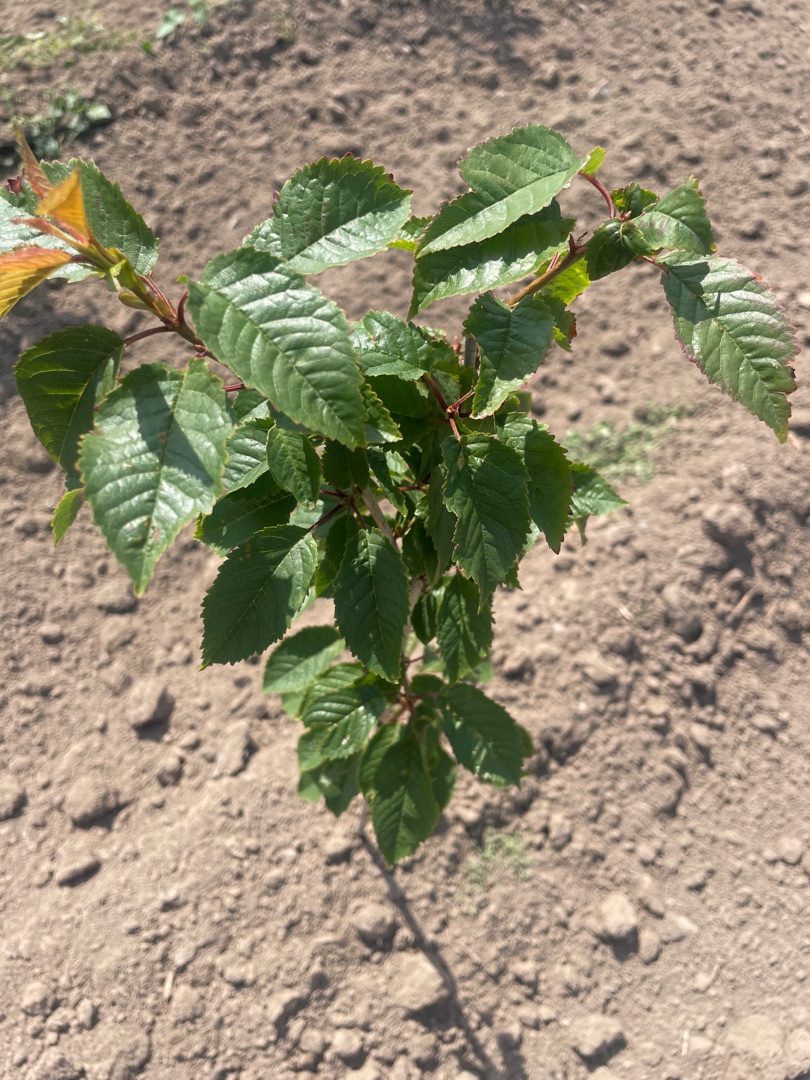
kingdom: Plantae
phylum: Tracheophyta
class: Magnoliopsida
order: Rosales
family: Rosaceae
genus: Prunus
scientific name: Prunus avium
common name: Fugle-kirsebær
